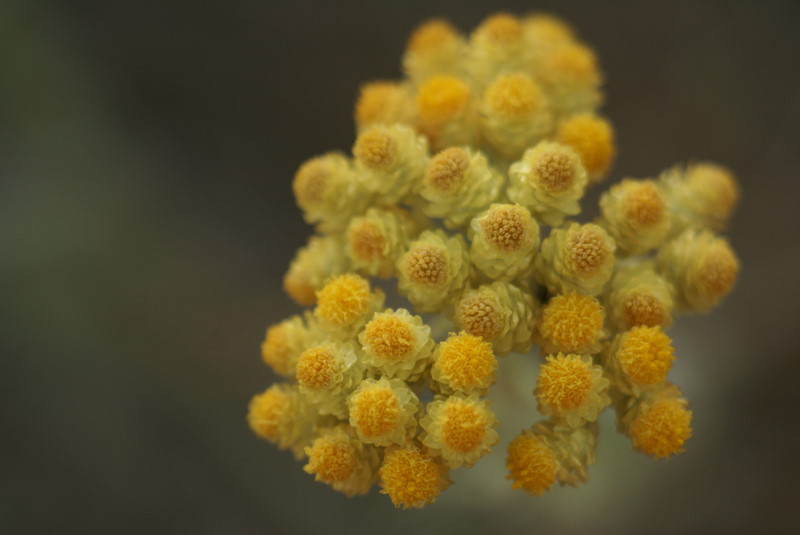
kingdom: Plantae
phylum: Tracheophyta
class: Magnoliopsida
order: Asterales
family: Asteraceae
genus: Helichrysum
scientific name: Helichrysum arenarium
